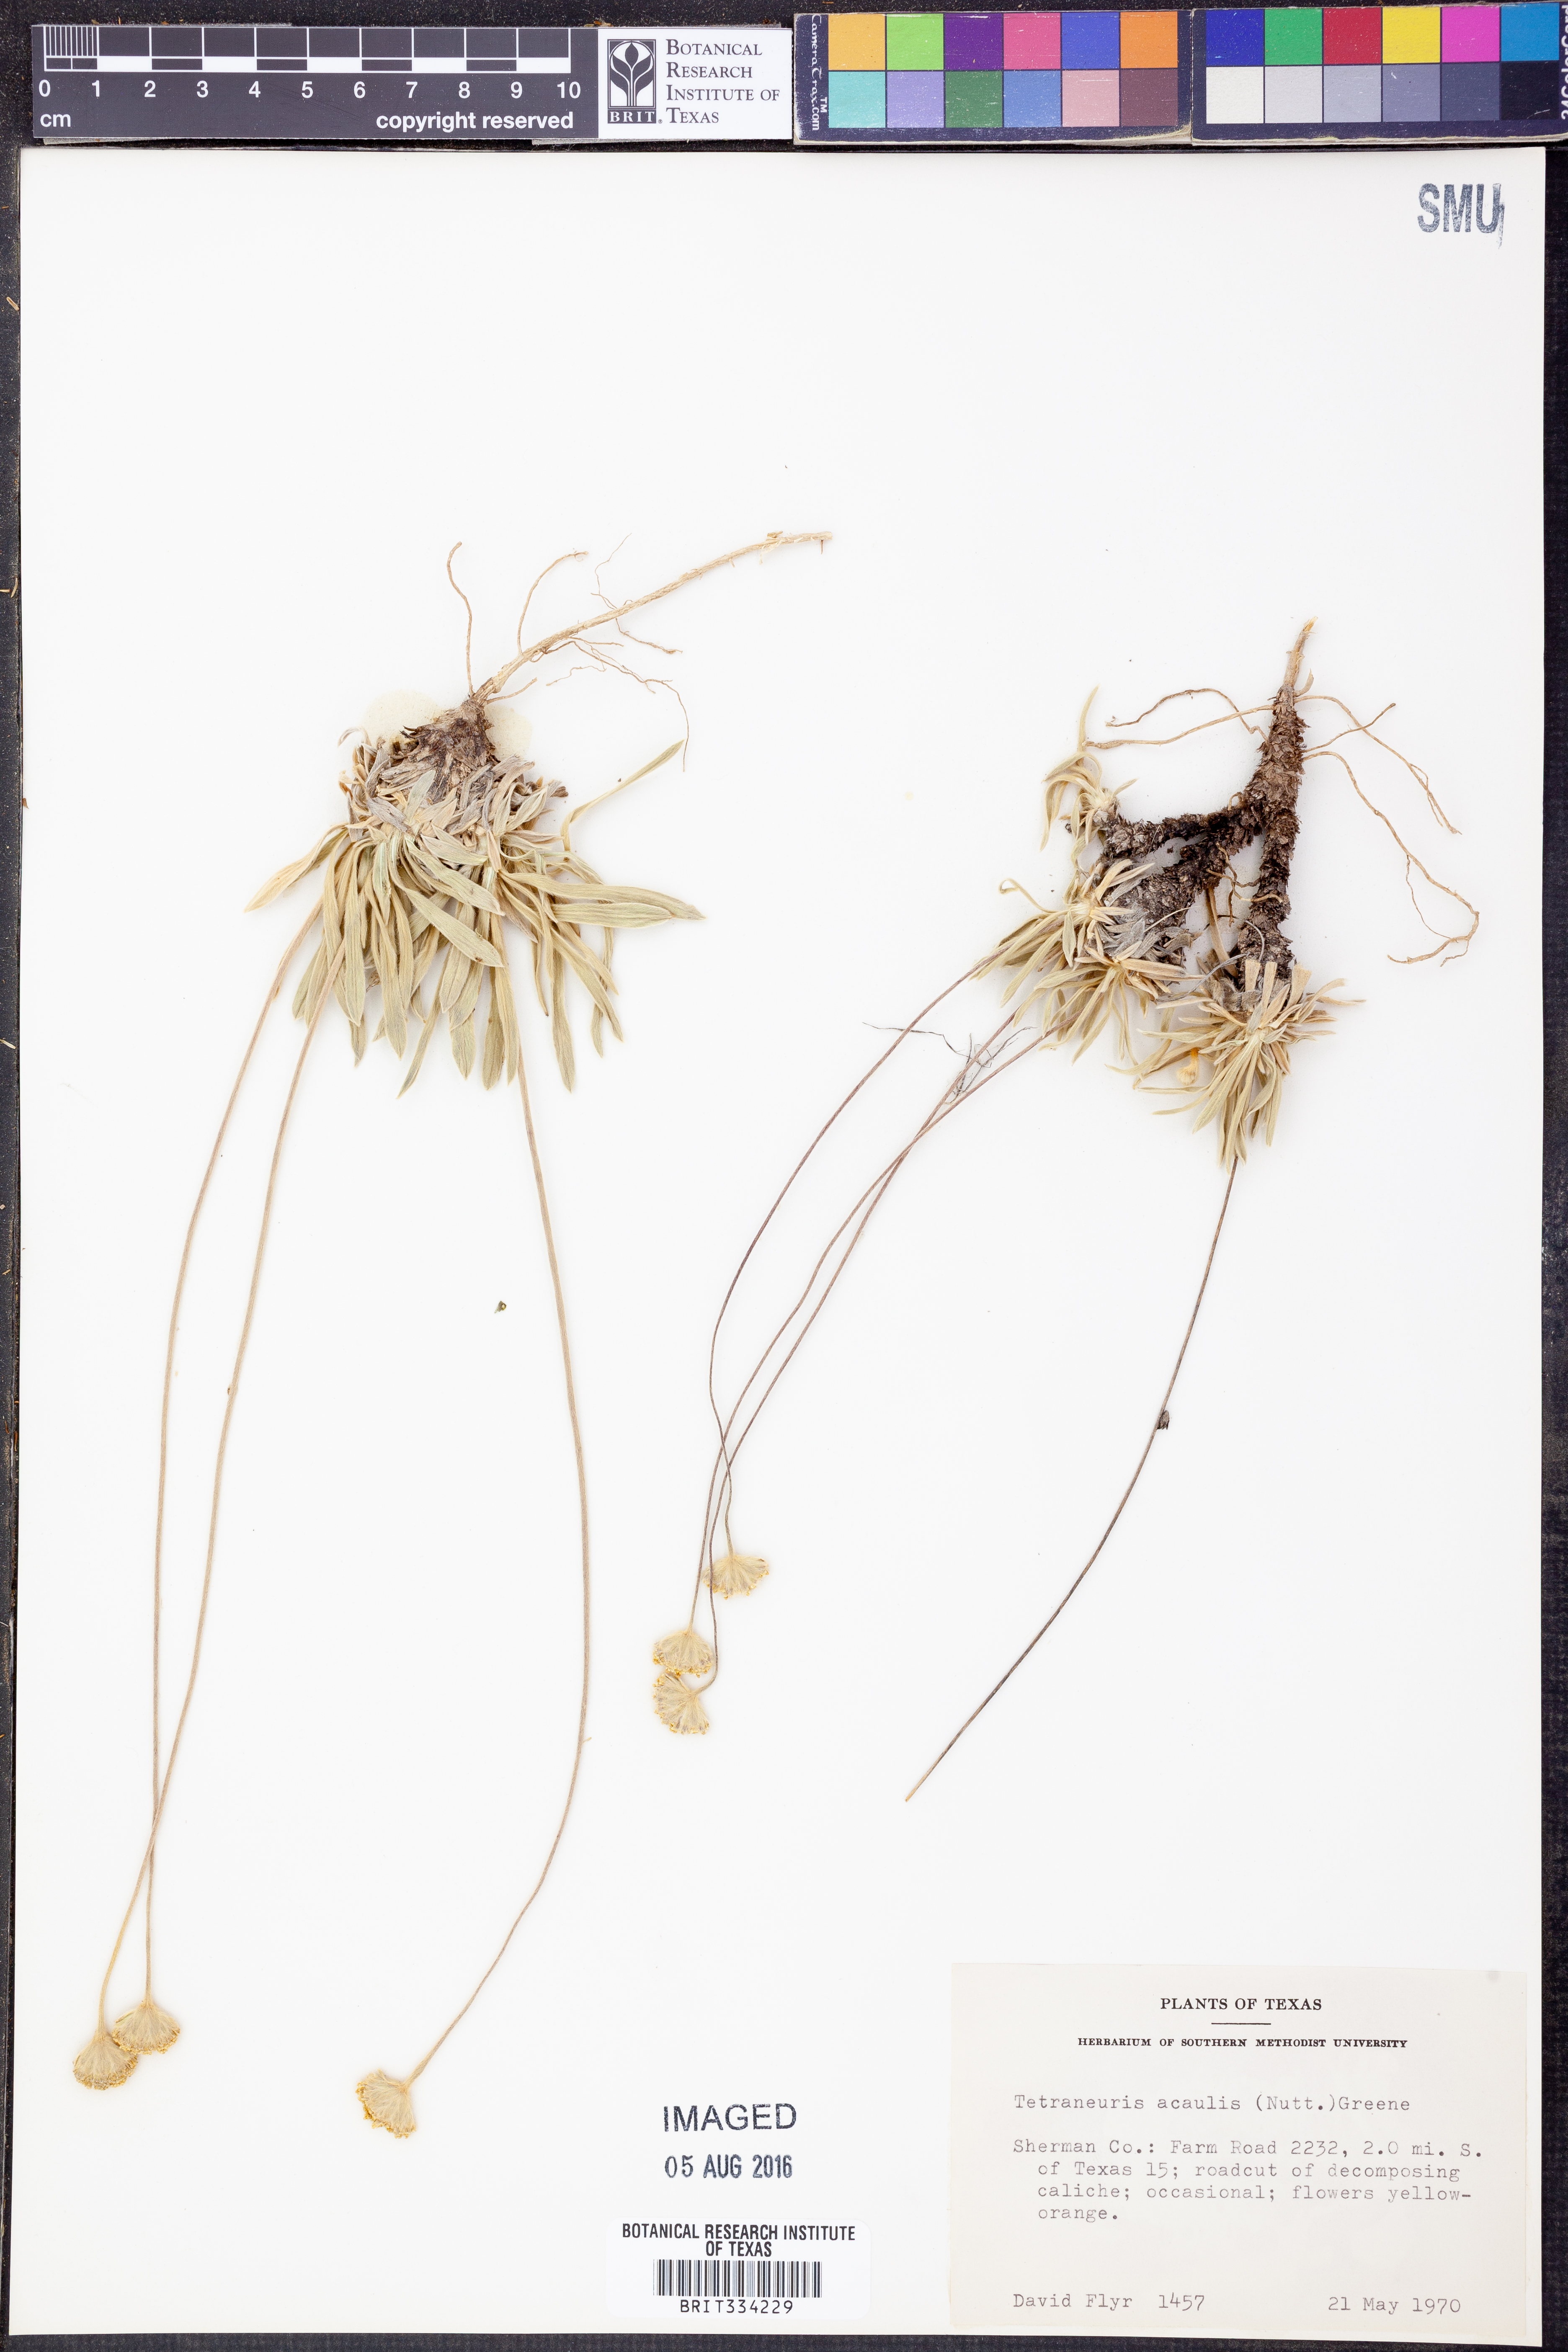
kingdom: Plantae
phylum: Tracheophyta
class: Magnoliopsida
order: Asterales
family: Asteraceae
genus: Tetraneuris
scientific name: Tetraneuris acaulis
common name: Butte marigold
